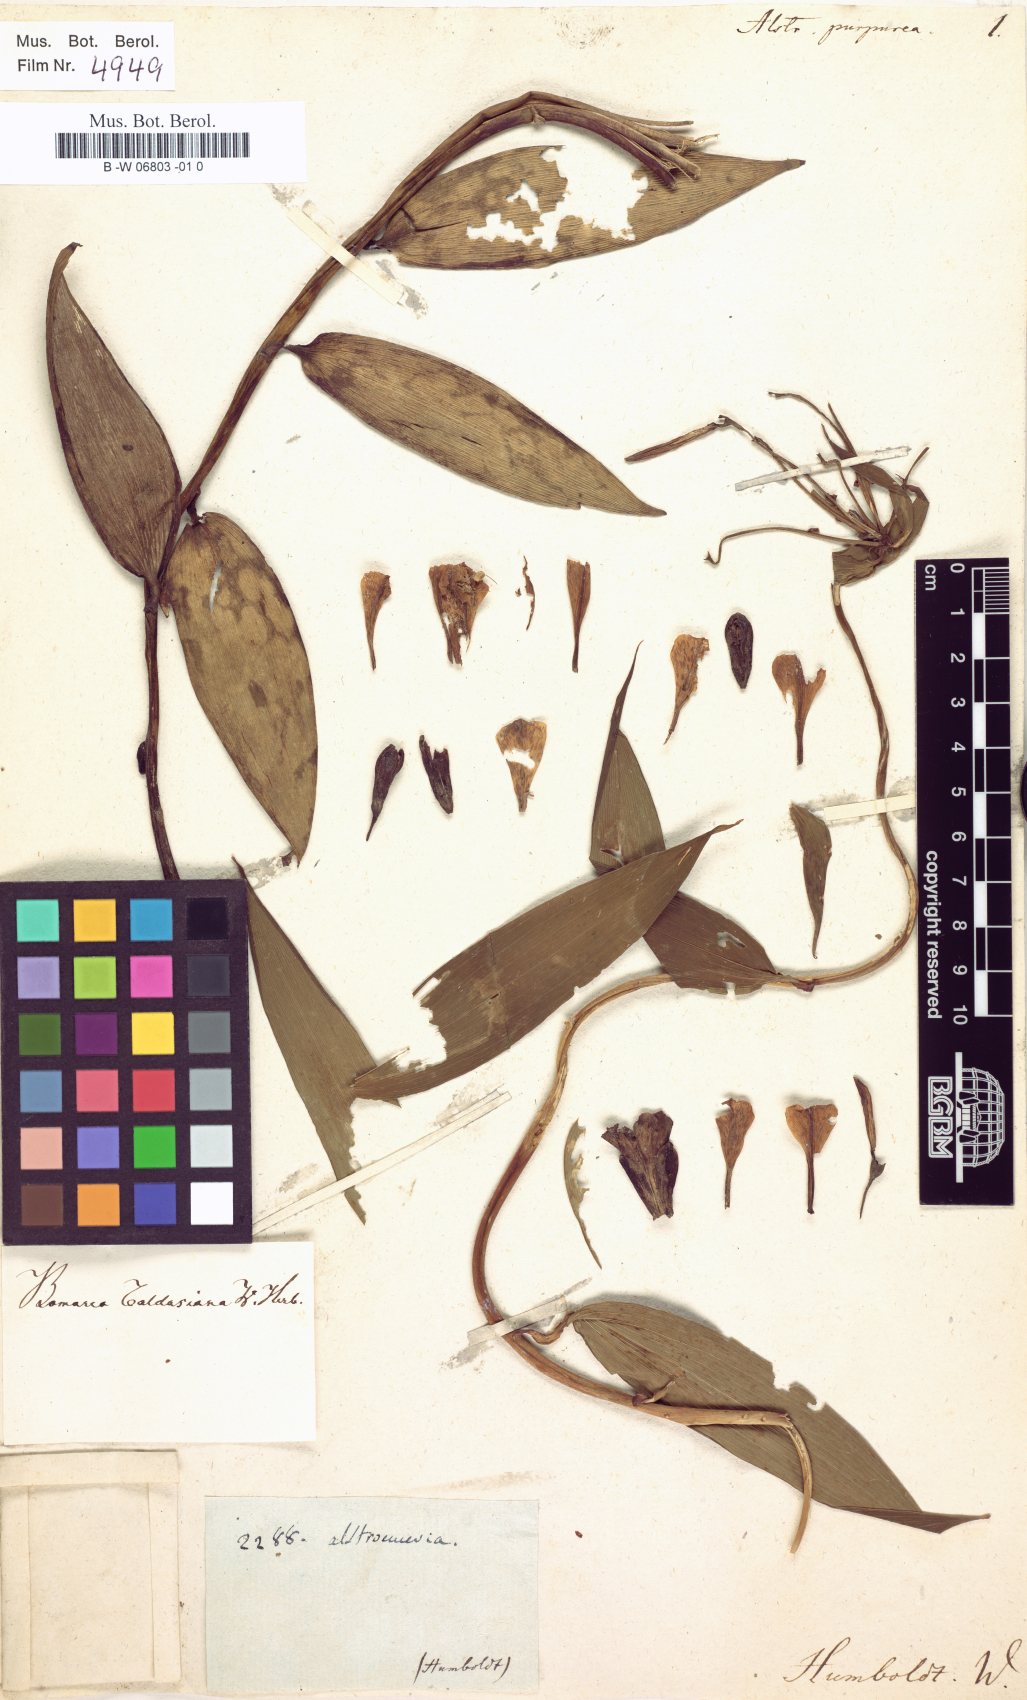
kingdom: Plantae
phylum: Tracheophyta
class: Liliopsida
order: Liliales
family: Alstroemeriaceae
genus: Bomarea
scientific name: Bomarea purpurea
